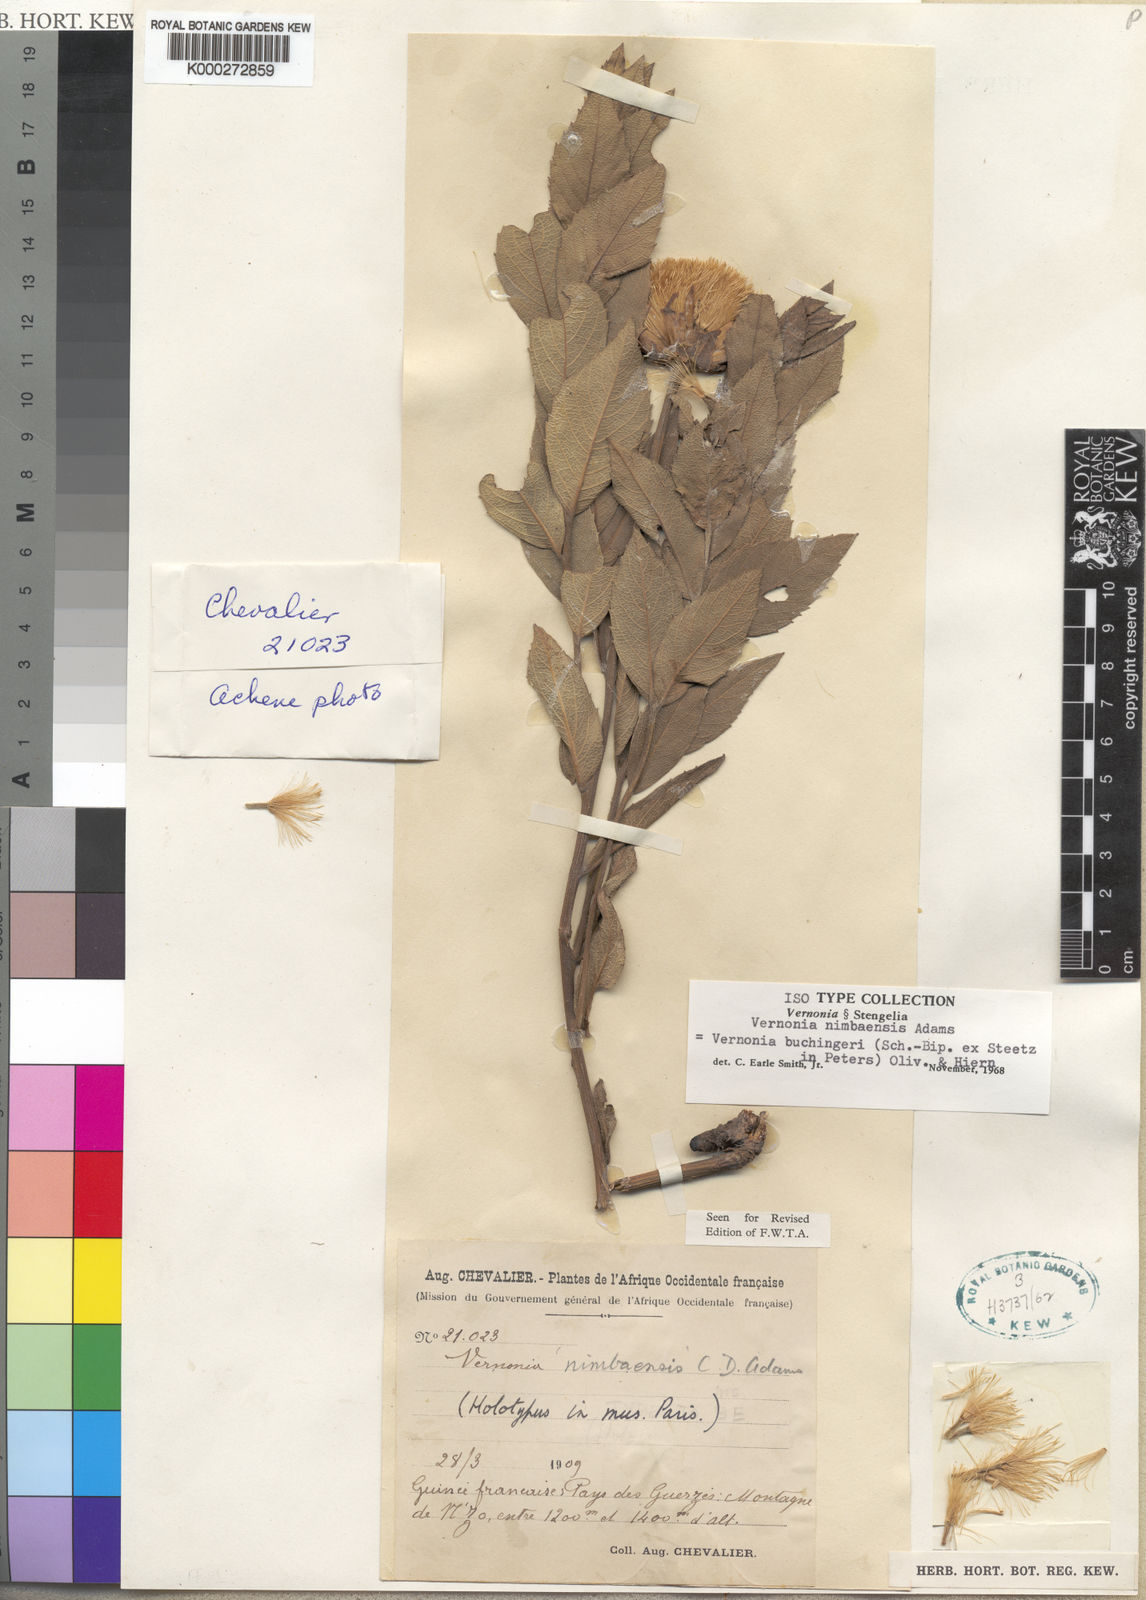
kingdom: Plantae
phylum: Tracheophyta
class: Magnoliopsida
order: Asterales
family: Asteraceae
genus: Baccharoides
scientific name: Baccharoides nimbaensis
